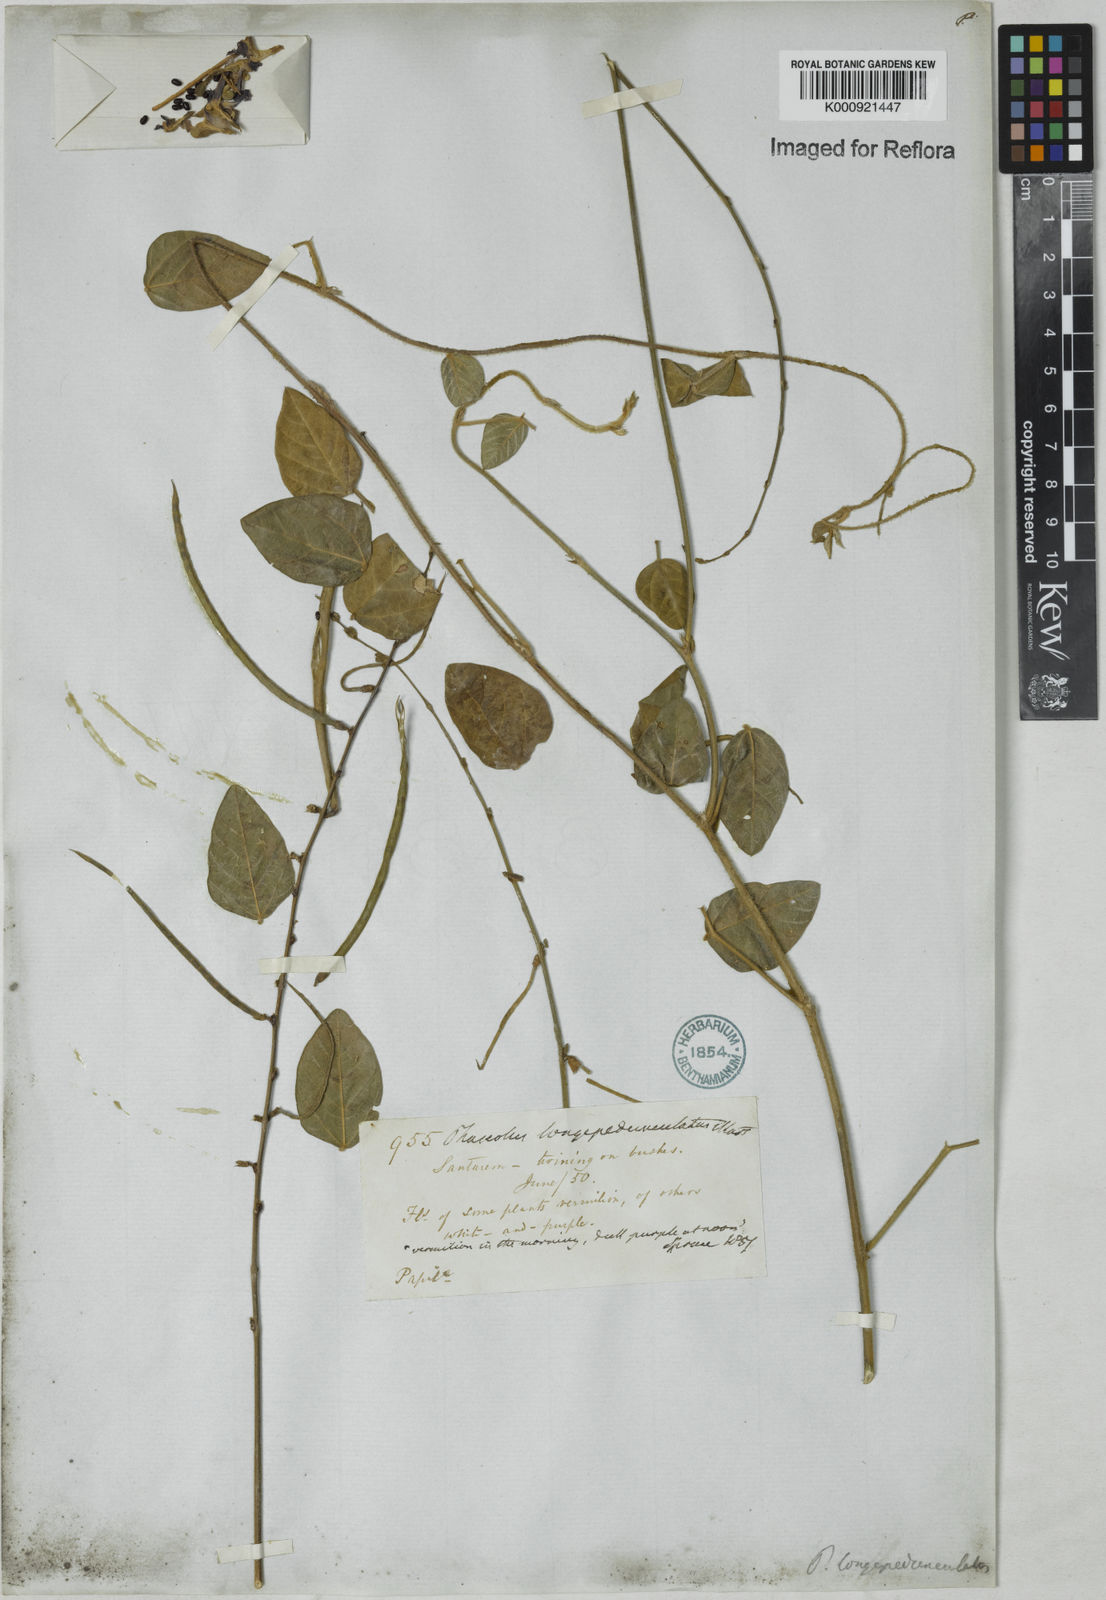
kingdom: Plantae
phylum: Tracheophyta
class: Magnoliopsida
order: Fabales
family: Fabaceae
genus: Macroptilium
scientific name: Macroptilium
